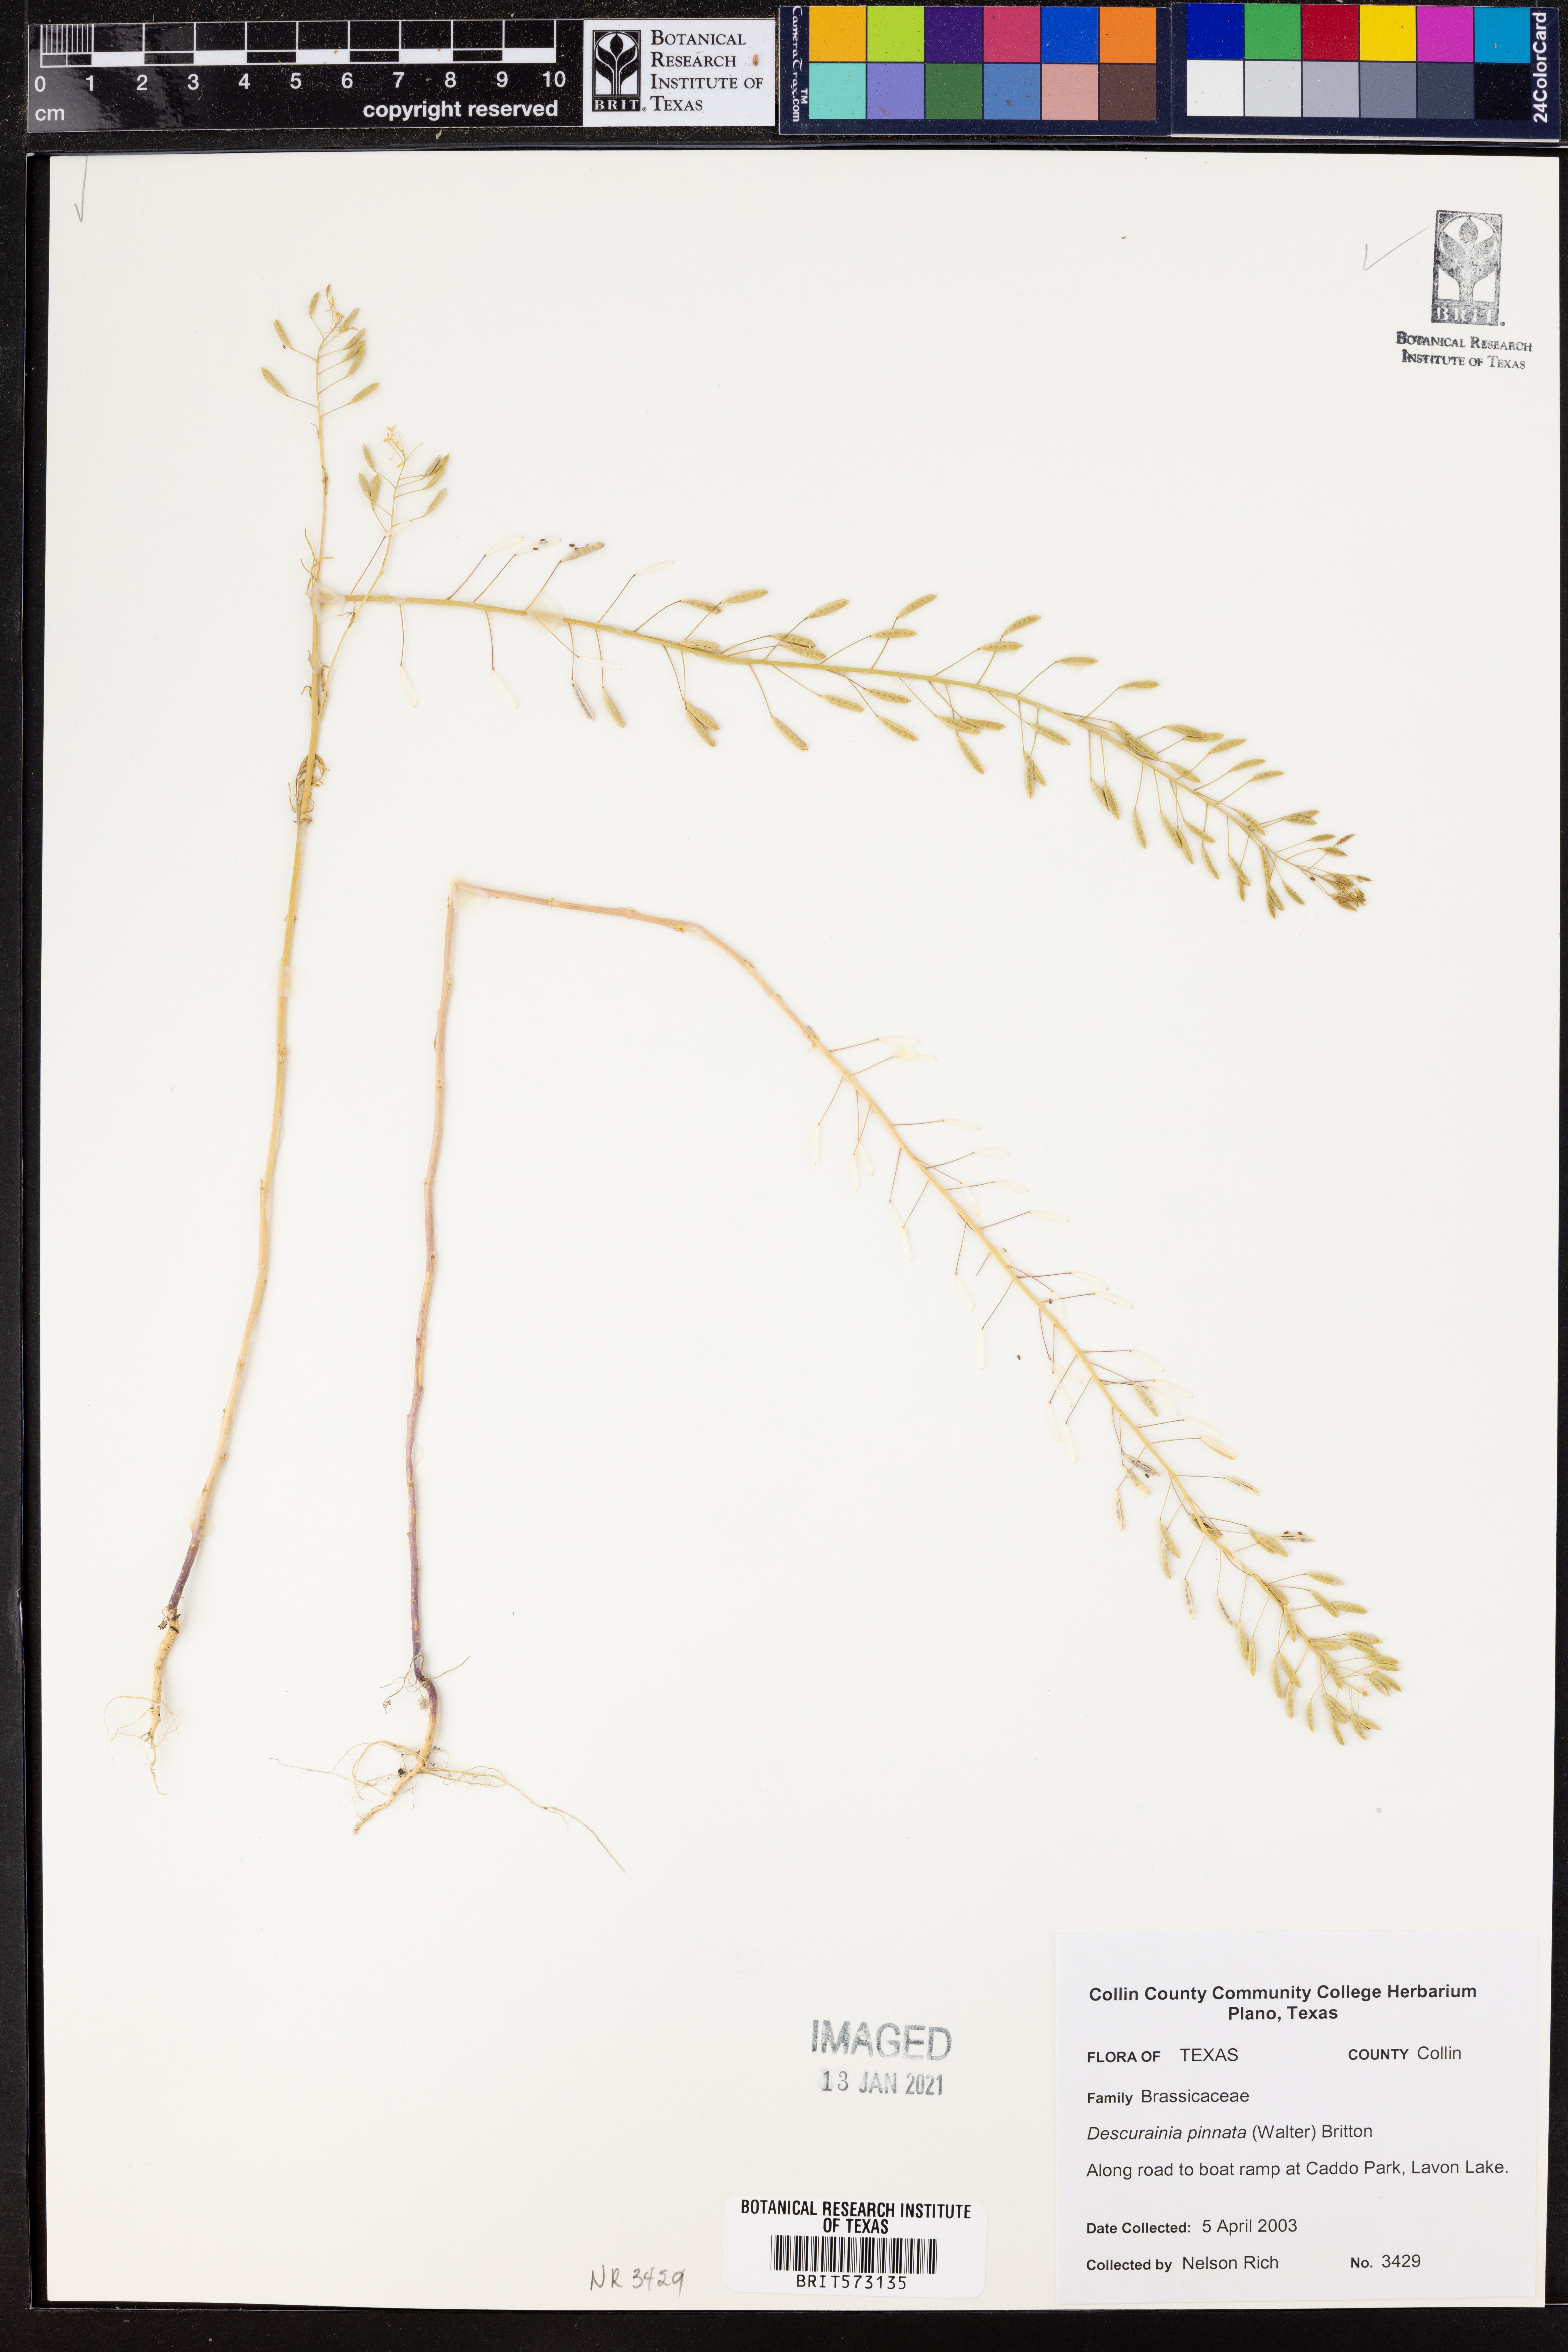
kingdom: Plantae
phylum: Tracheophyta
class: Magnoliopsida
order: Brassicales
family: Brassicaceae
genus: Descurainia
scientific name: Descurainia pinnata
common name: Western tansy mustard
